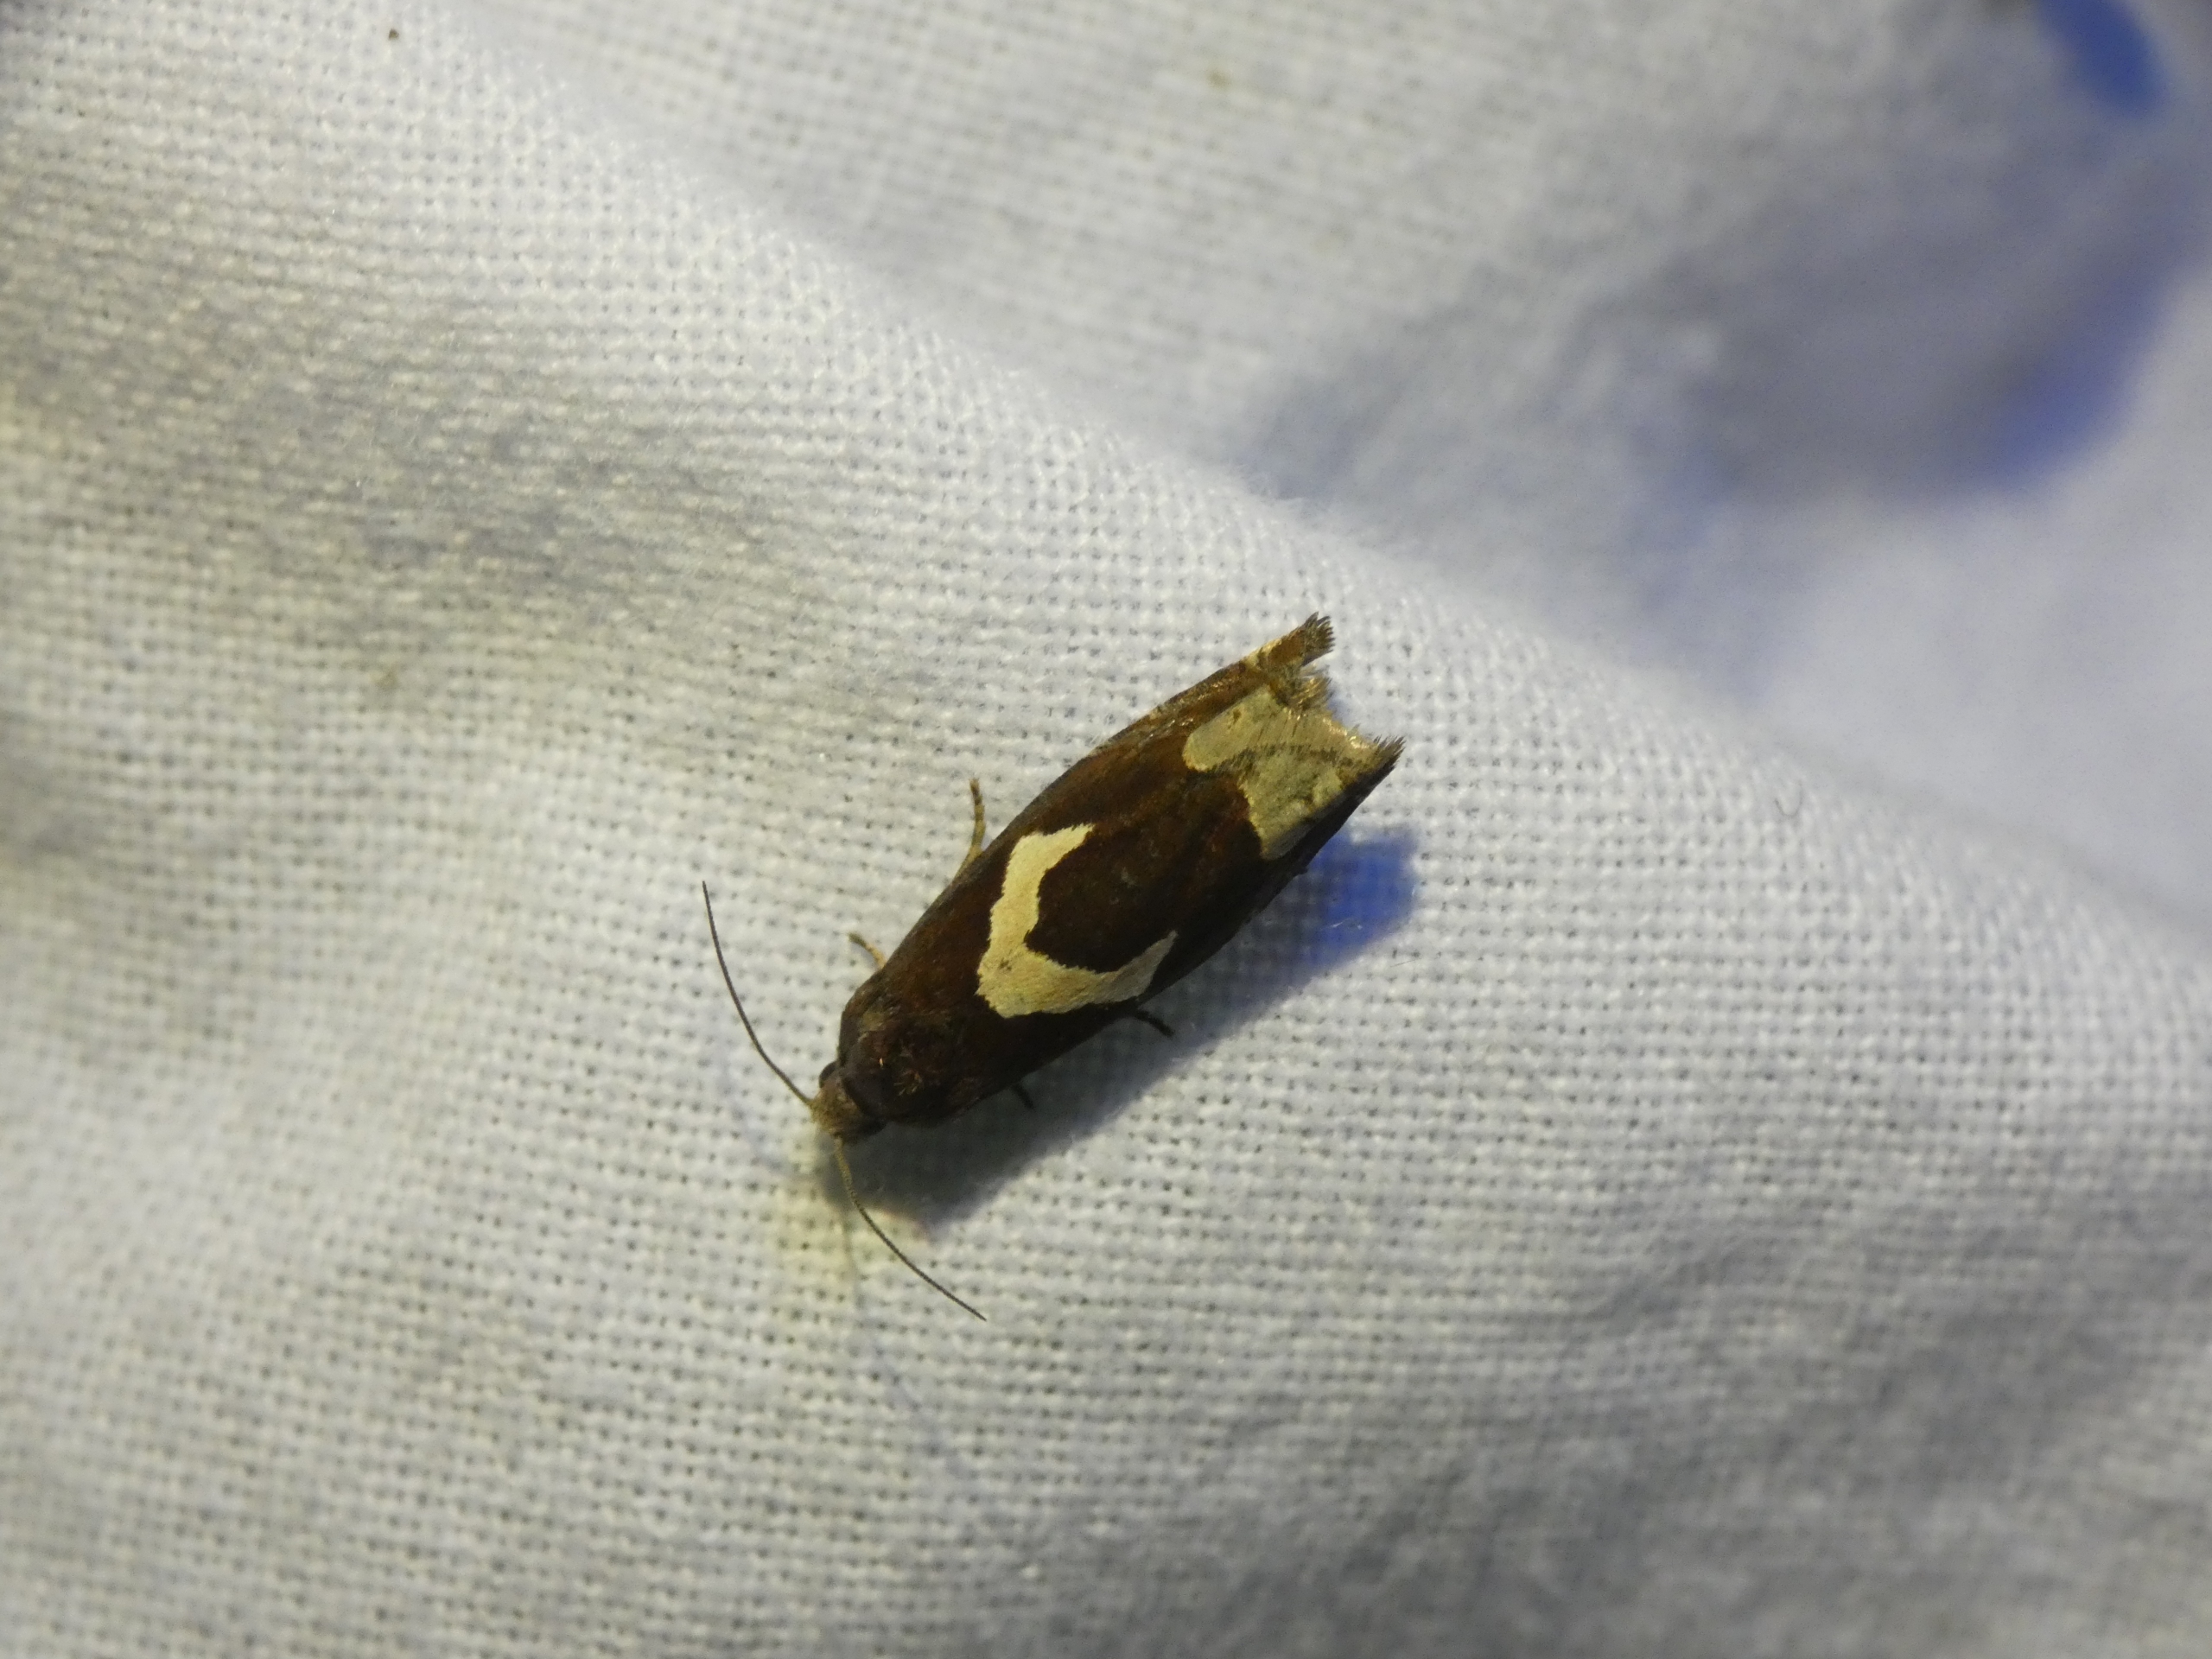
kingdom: Animalia
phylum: Arthropoda
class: Insecta
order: Lepidoptera
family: Tortricidae
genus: Epiblema
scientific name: Epiblema foenella
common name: Gråbynkegallevikler
